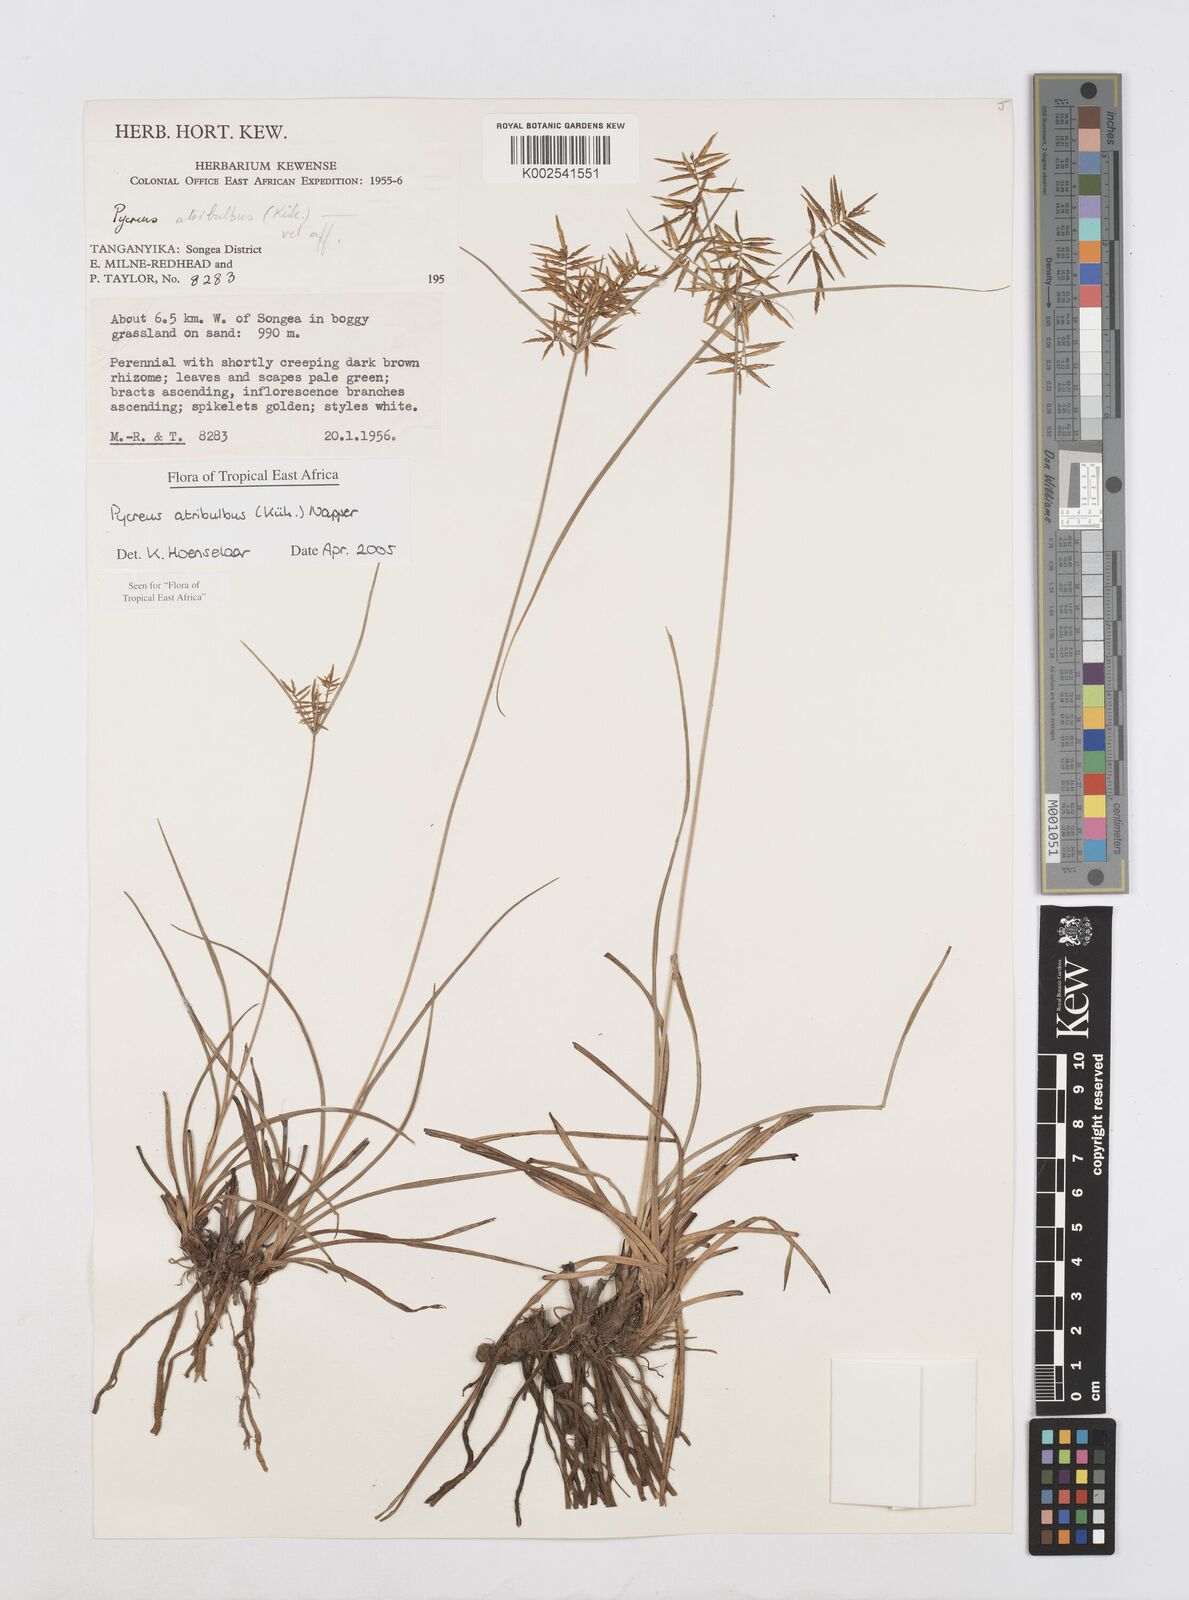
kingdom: Plantae
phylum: Tracheophyta
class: Liliopsida
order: Poales
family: Cyperaceae
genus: Cyperus
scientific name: Cyperus intactus
